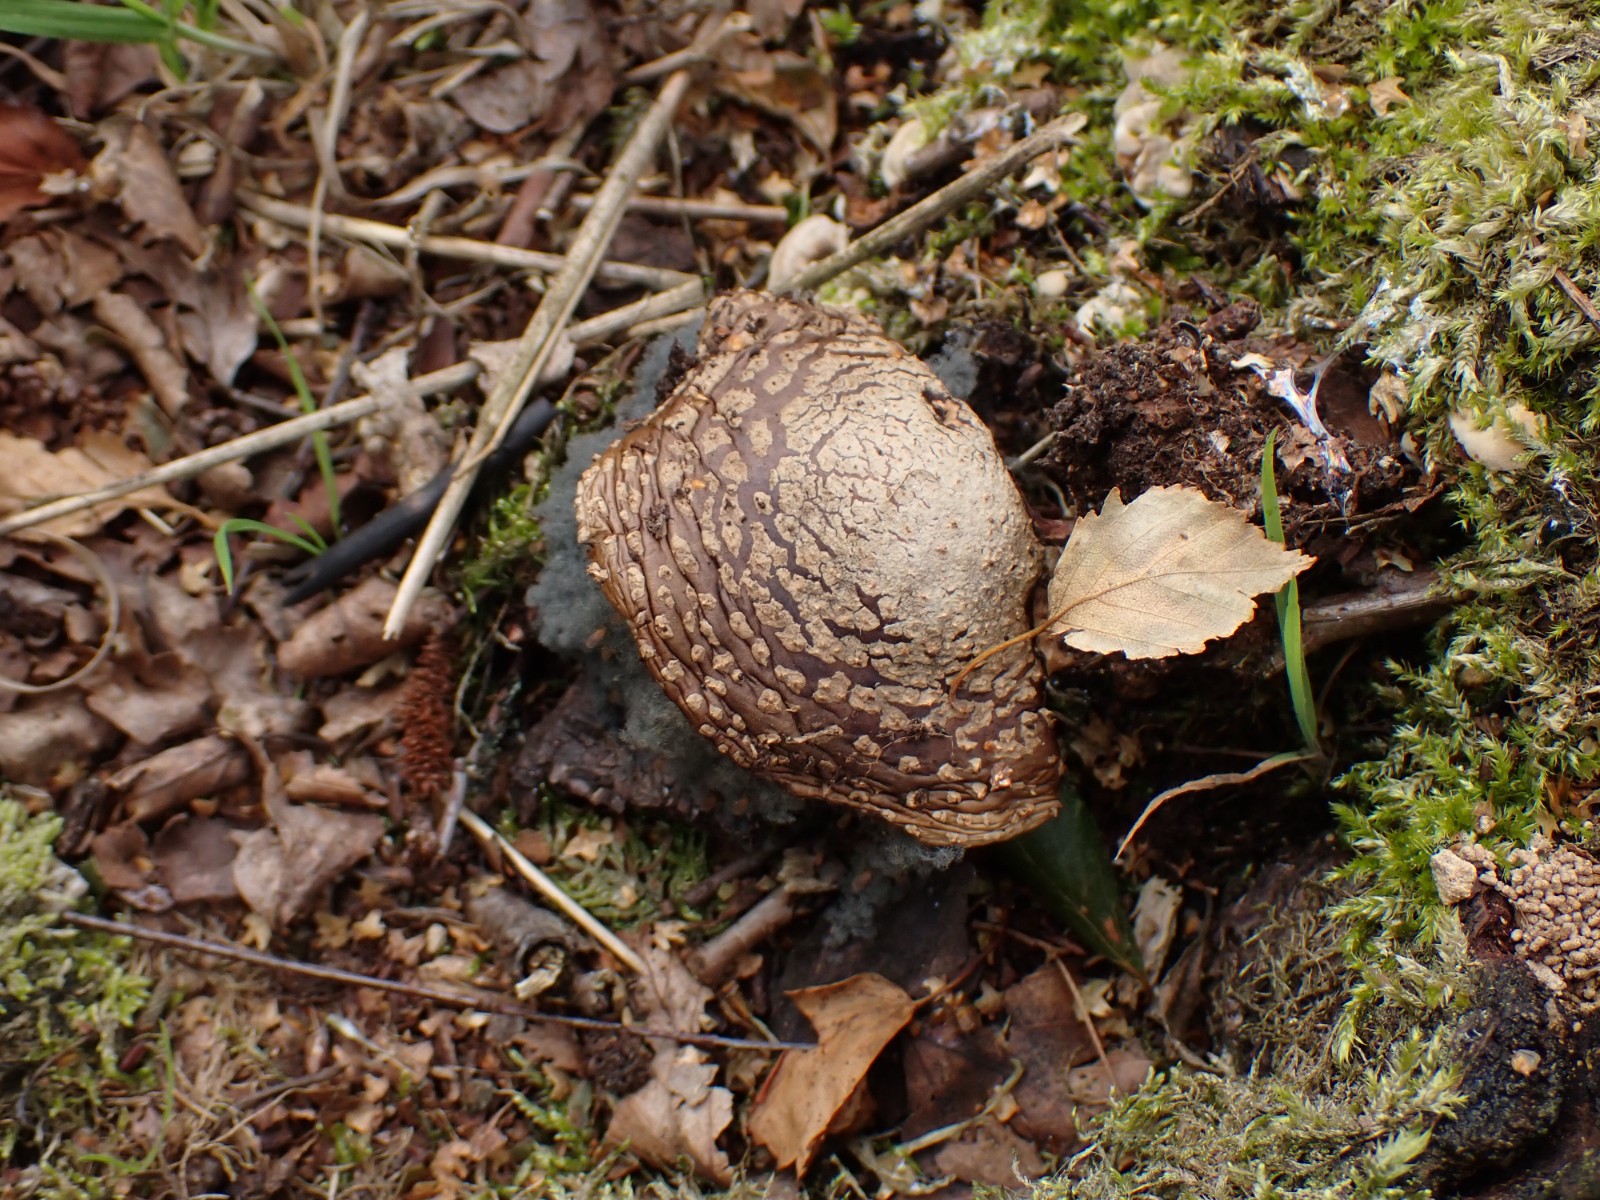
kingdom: Fungi
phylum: Basidiomycota
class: Agaricomycetes
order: Agaricales
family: Amanitaceae
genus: Amanita
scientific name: Amanita rubescens
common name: rødmende fluesvamp
